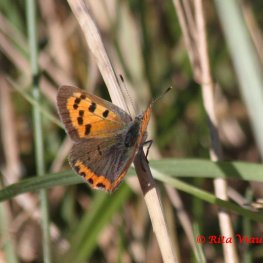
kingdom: Animalia
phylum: Arthropoda
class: Insecta
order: Lepidoptera
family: Lycaenidae
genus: Lycaena
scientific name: Lycaena phlaeas
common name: American Copper
